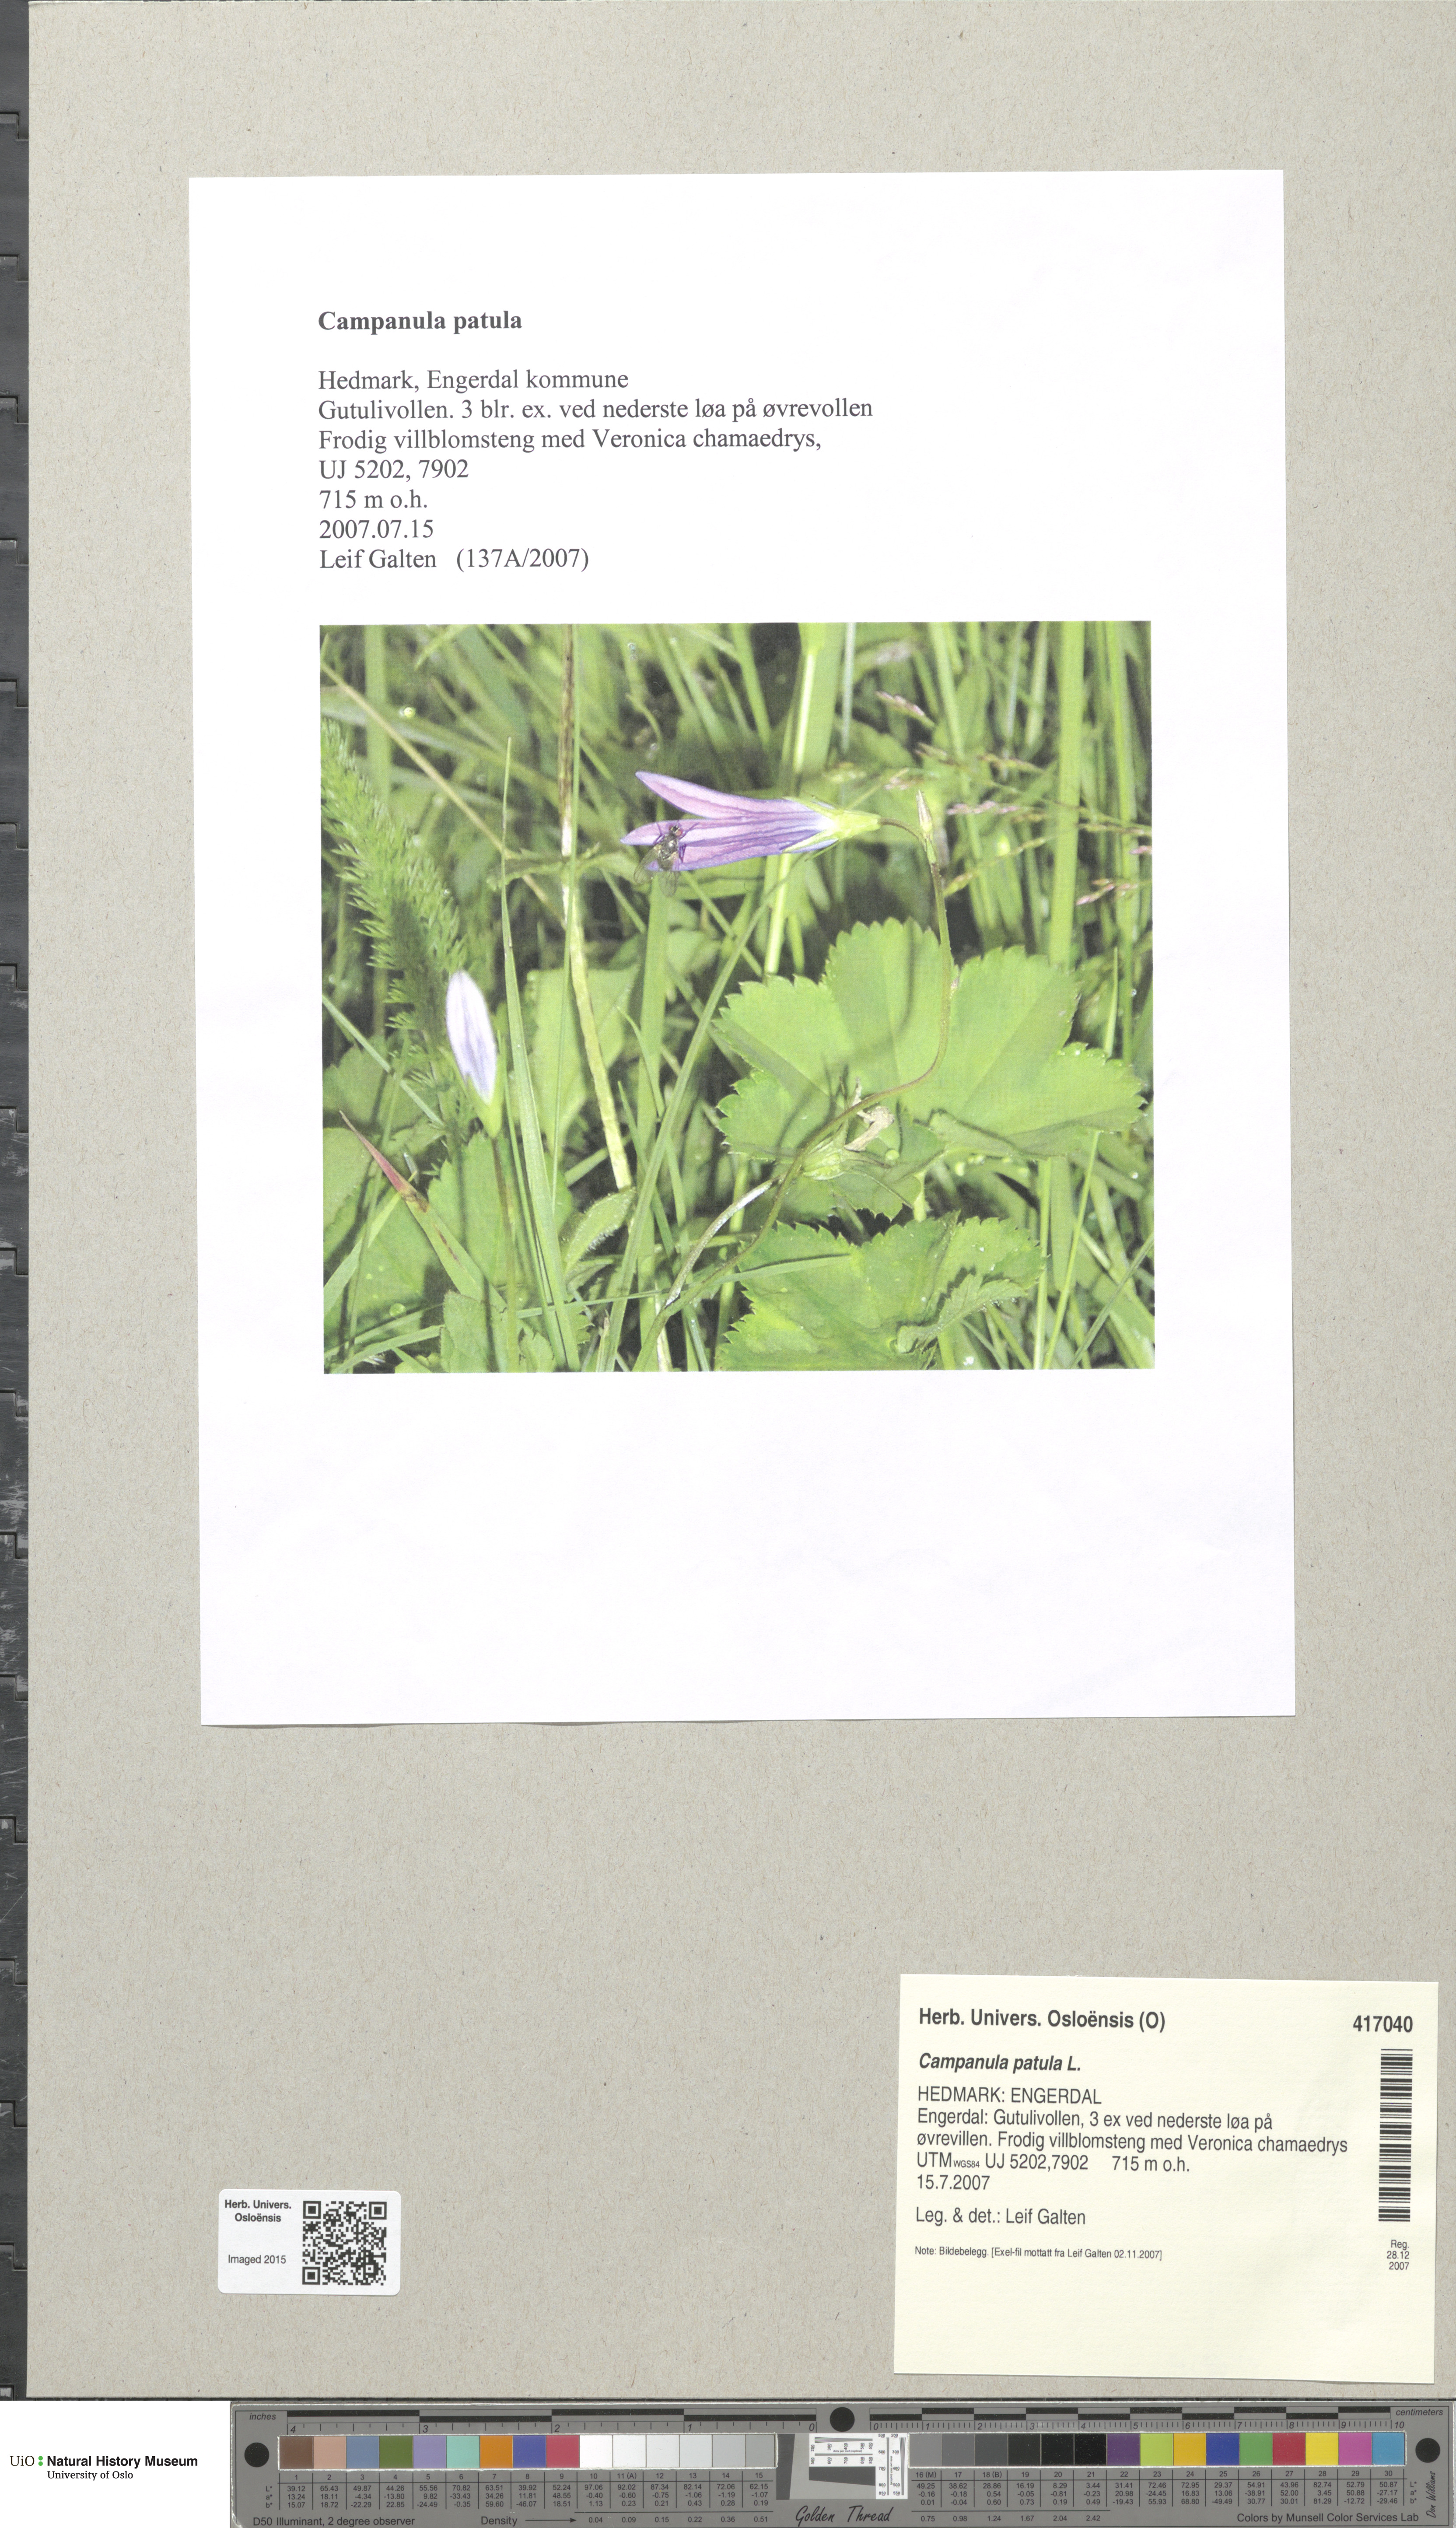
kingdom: Plantae
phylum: Tracheophyta
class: Magnoliopsida
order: Asterales
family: Campanulaceae
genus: Campanula
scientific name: Campanula patula
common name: Spreading bellflower
